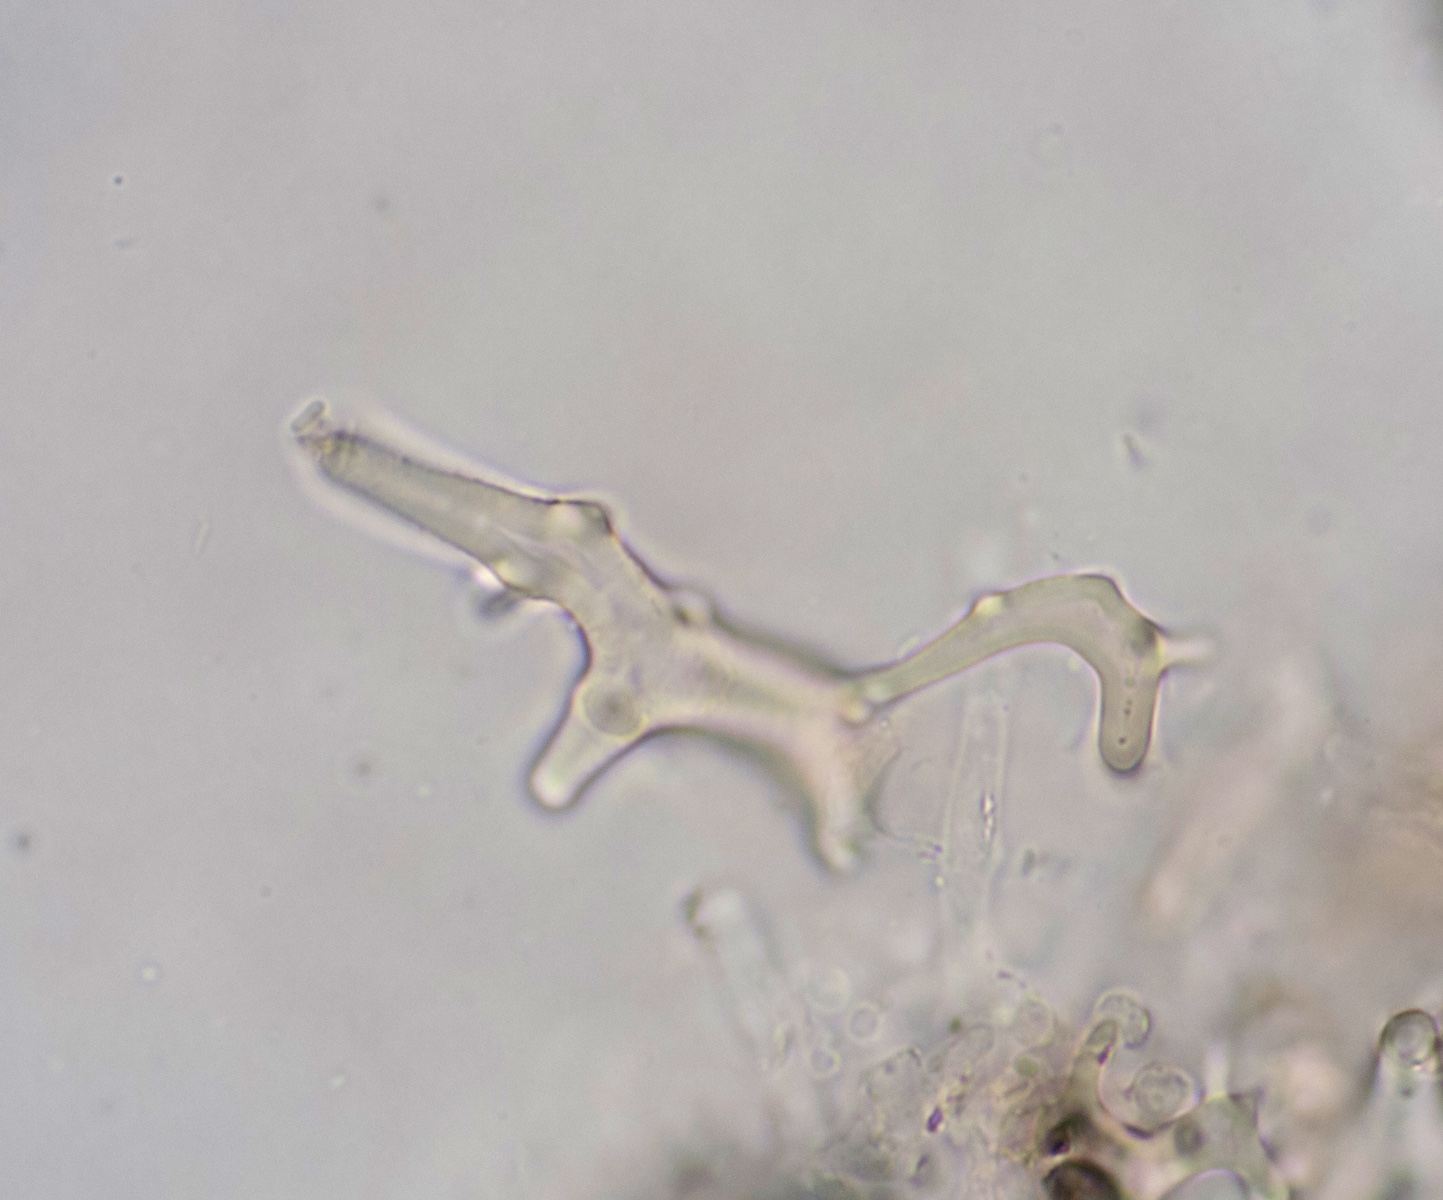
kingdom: Fungi
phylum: Basidiomycota
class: Agaricomycetes
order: Agaricales
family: Psathyrellaceae
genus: Coprinopsis
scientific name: Coprinopsis phaeospora
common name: fælled-blækhat
